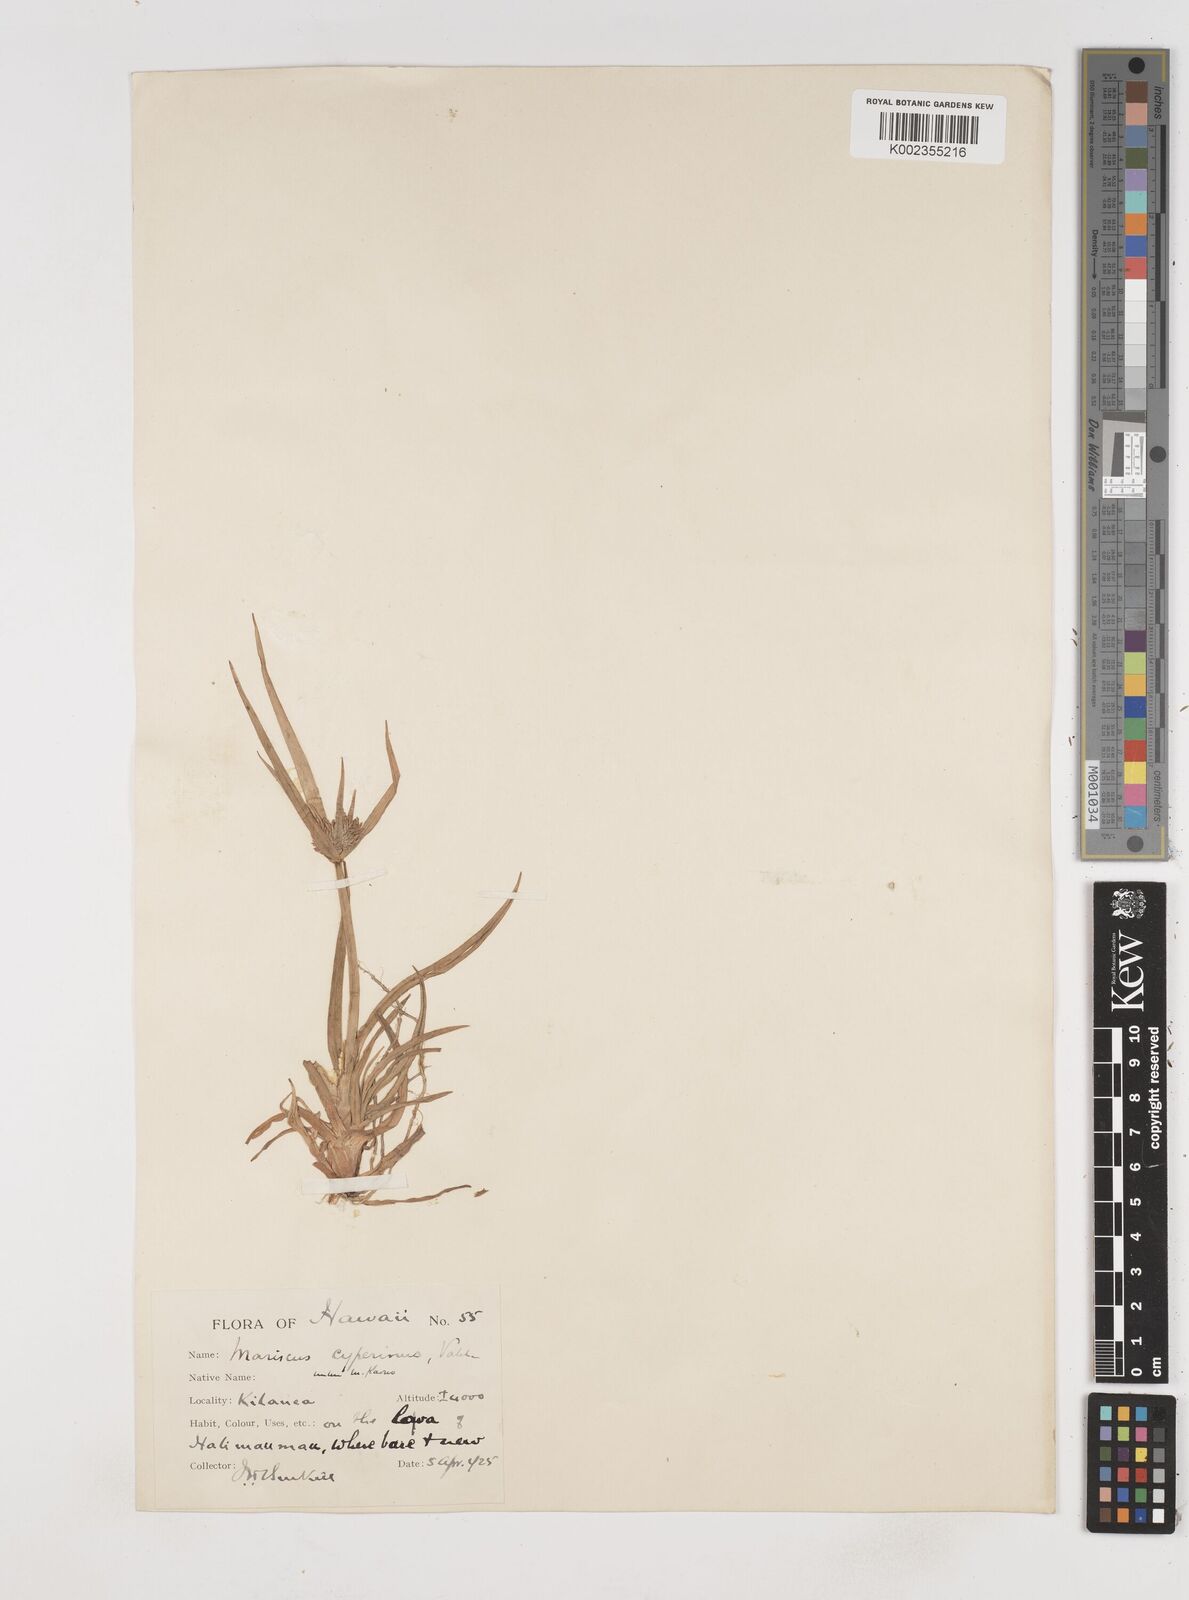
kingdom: Plantae
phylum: Tracheophyta
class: Liliopsida
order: Poales
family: Cyperaceae
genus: Cyperus
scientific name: Cyperus cyperinus
